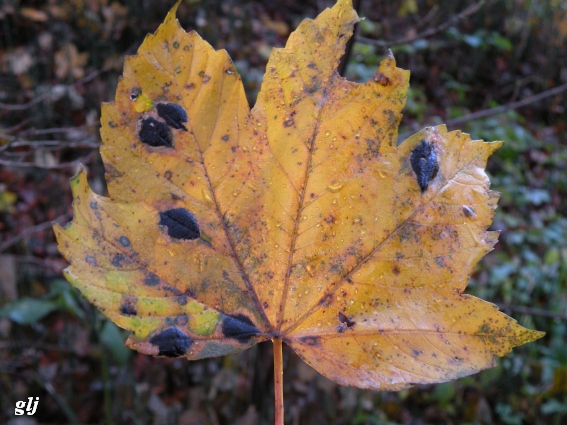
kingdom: Fungi
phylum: Ascomycota
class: Leotiomycetes
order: Rhytismatales
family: Rhytismataceae
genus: Rhytisma
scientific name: Rhytisma acerinum
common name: ahorn-rynkeplet
